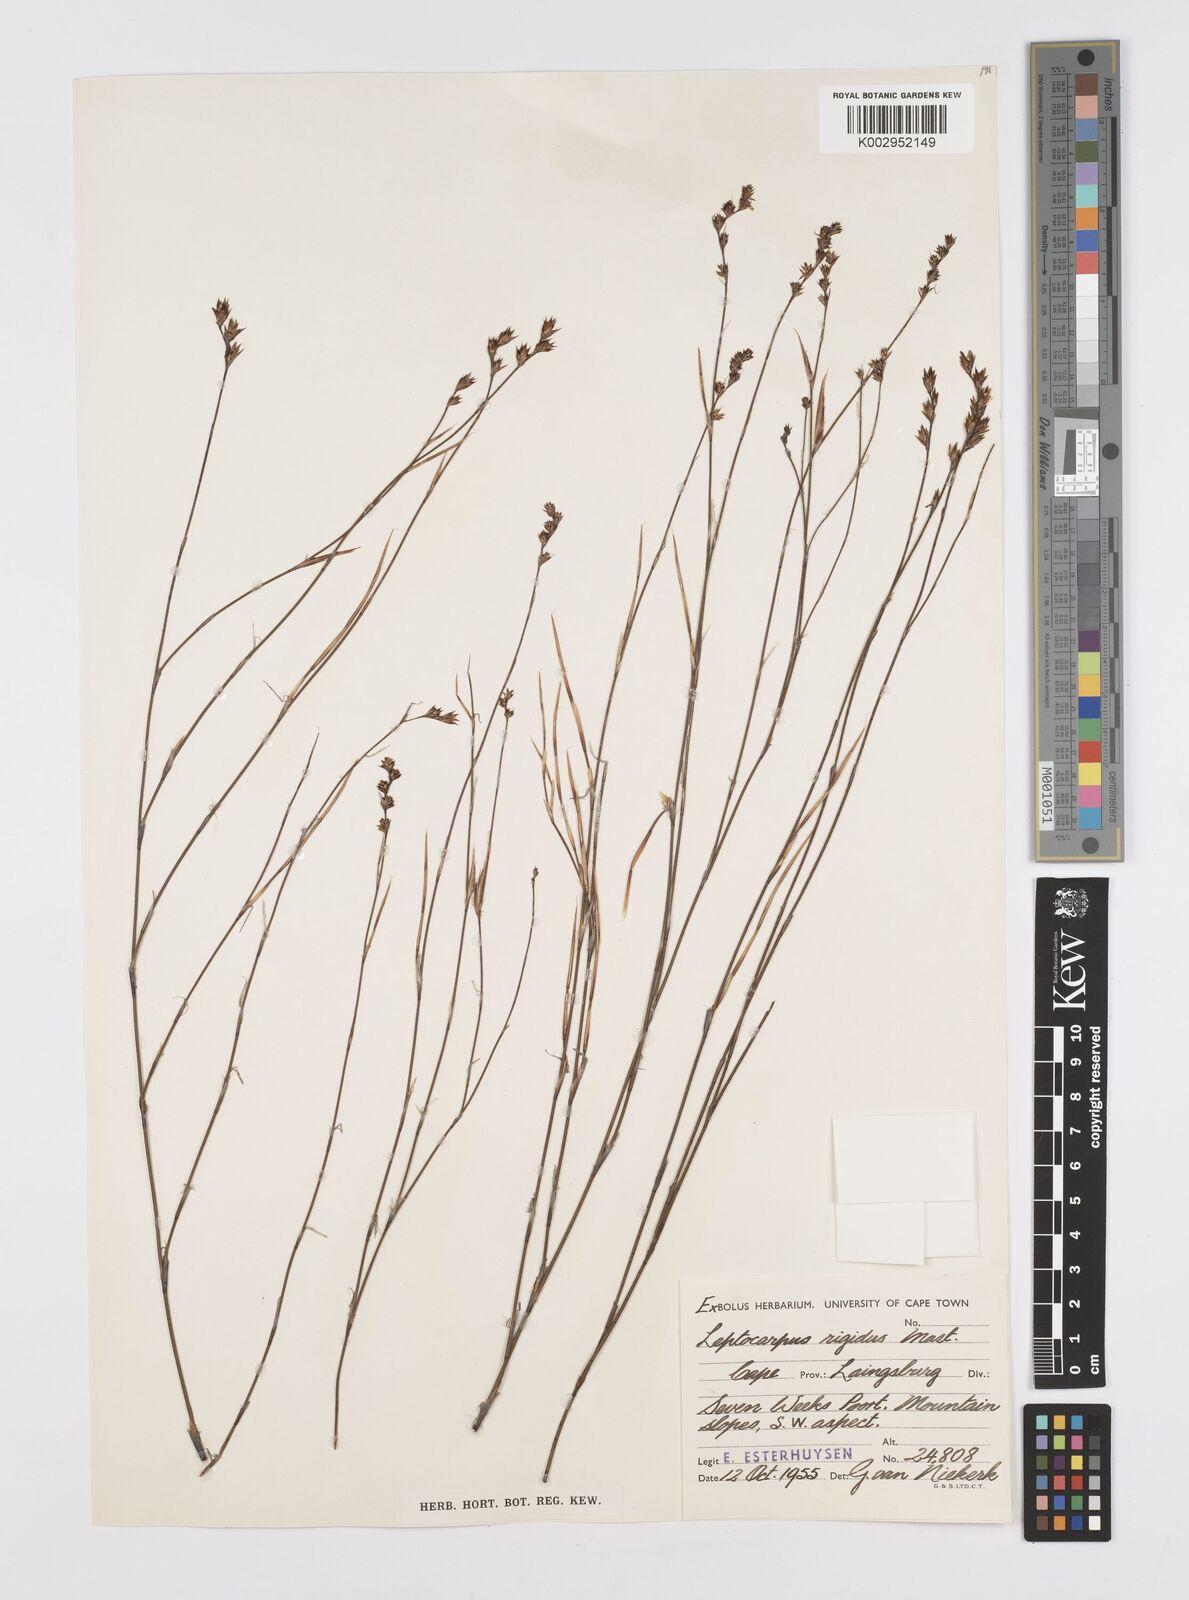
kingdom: Plantae
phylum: Tracheophyta
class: Liliopsida
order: Poales
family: Restionaceae
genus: Restio
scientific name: Restio rigidus
